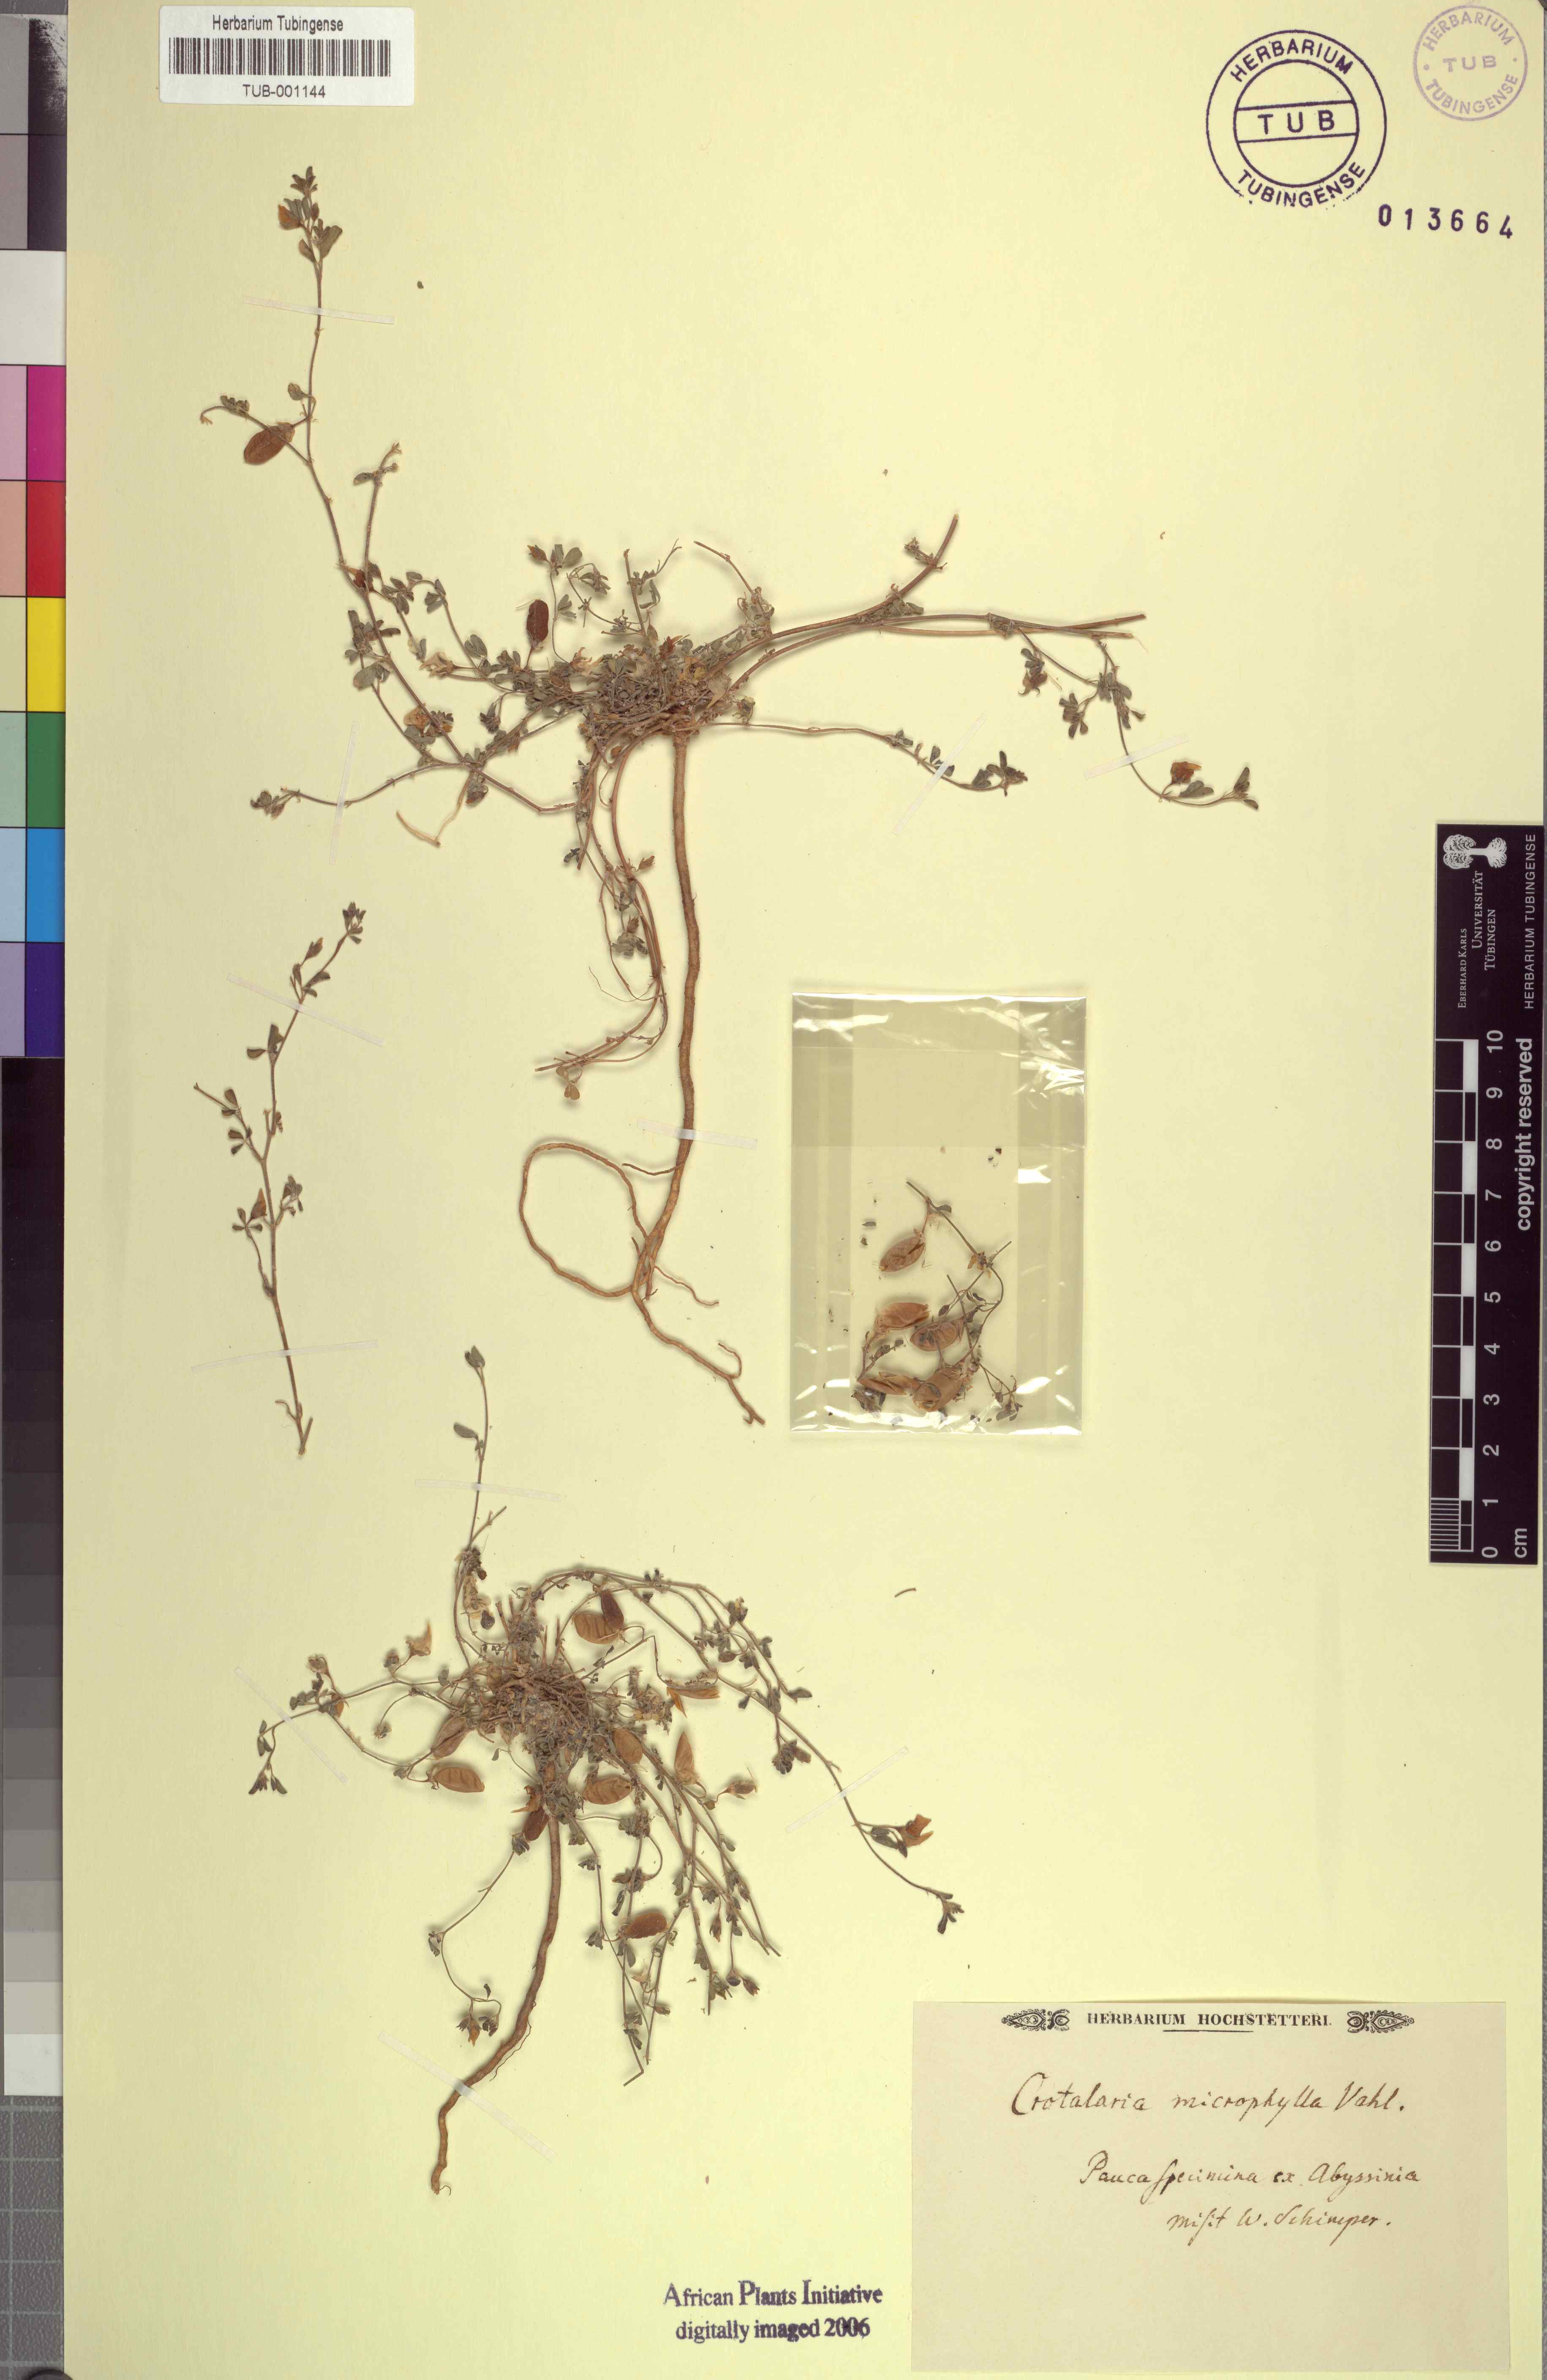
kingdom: Plantae
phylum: Tracheophyta
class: Magnoliopsida
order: Fabales
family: Fabaceae
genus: Crotalaria
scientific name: Crotalaria microphylla
